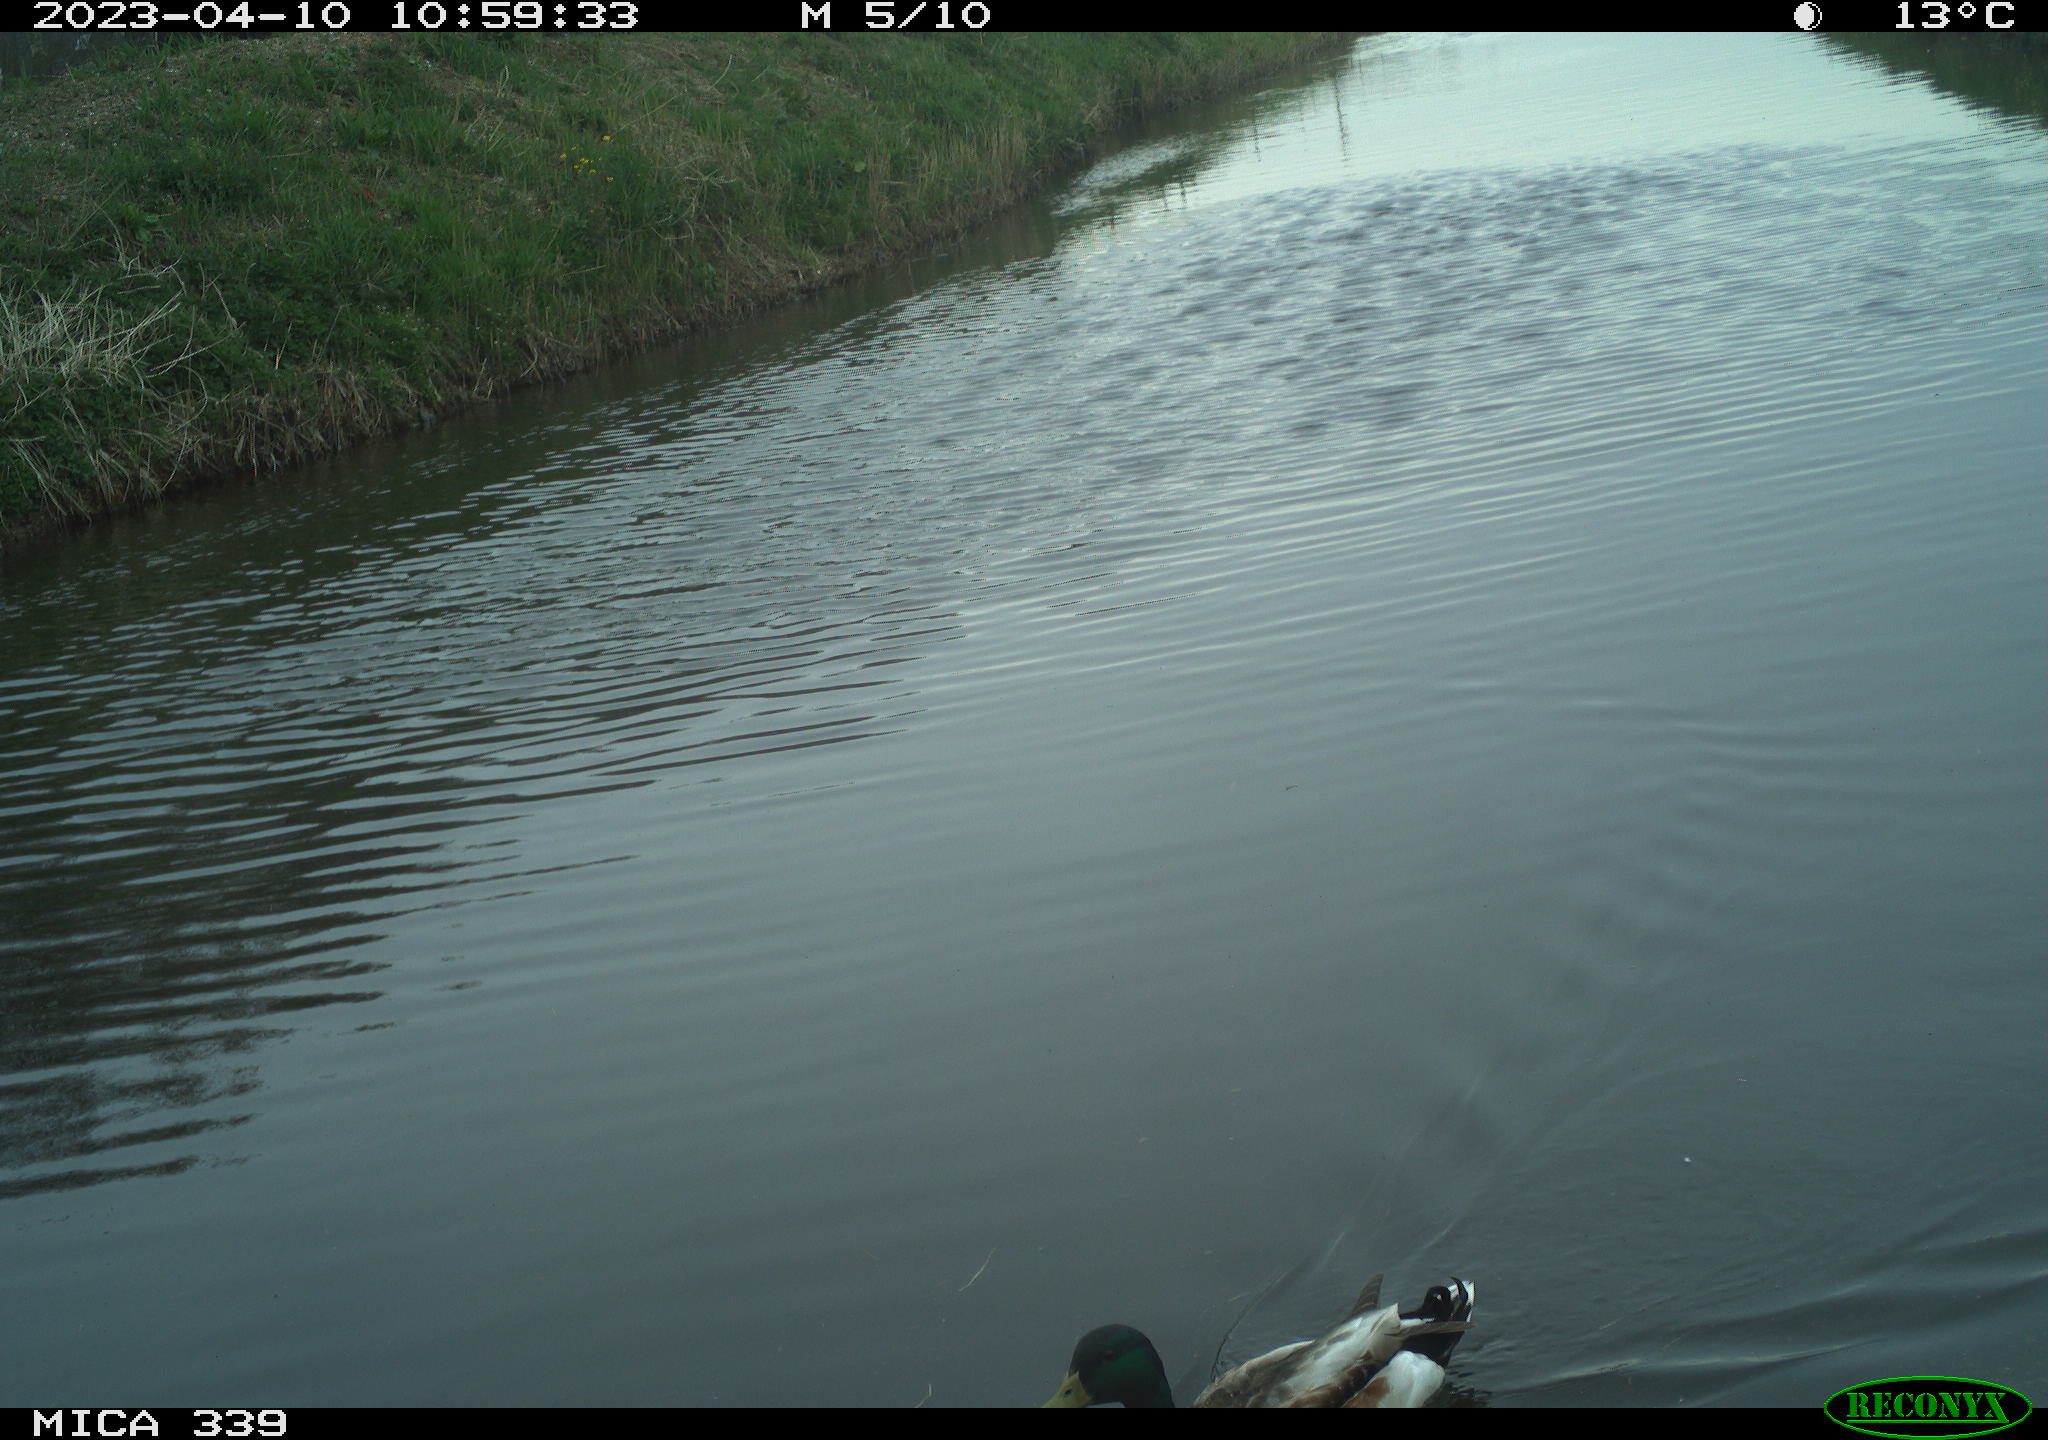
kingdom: Animalia
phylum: Chordata
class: Aves
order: Anseriformes
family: Anatidae
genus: Anas
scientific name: Anas
